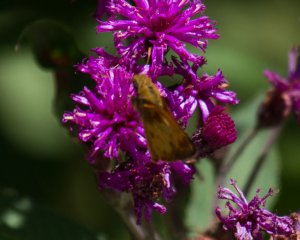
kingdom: Animalia
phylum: Arthropoda
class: Insecta
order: Lepidoptera
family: Hesperiidae
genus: Lon
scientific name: Lon zabulon
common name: Zabulon Skipper
